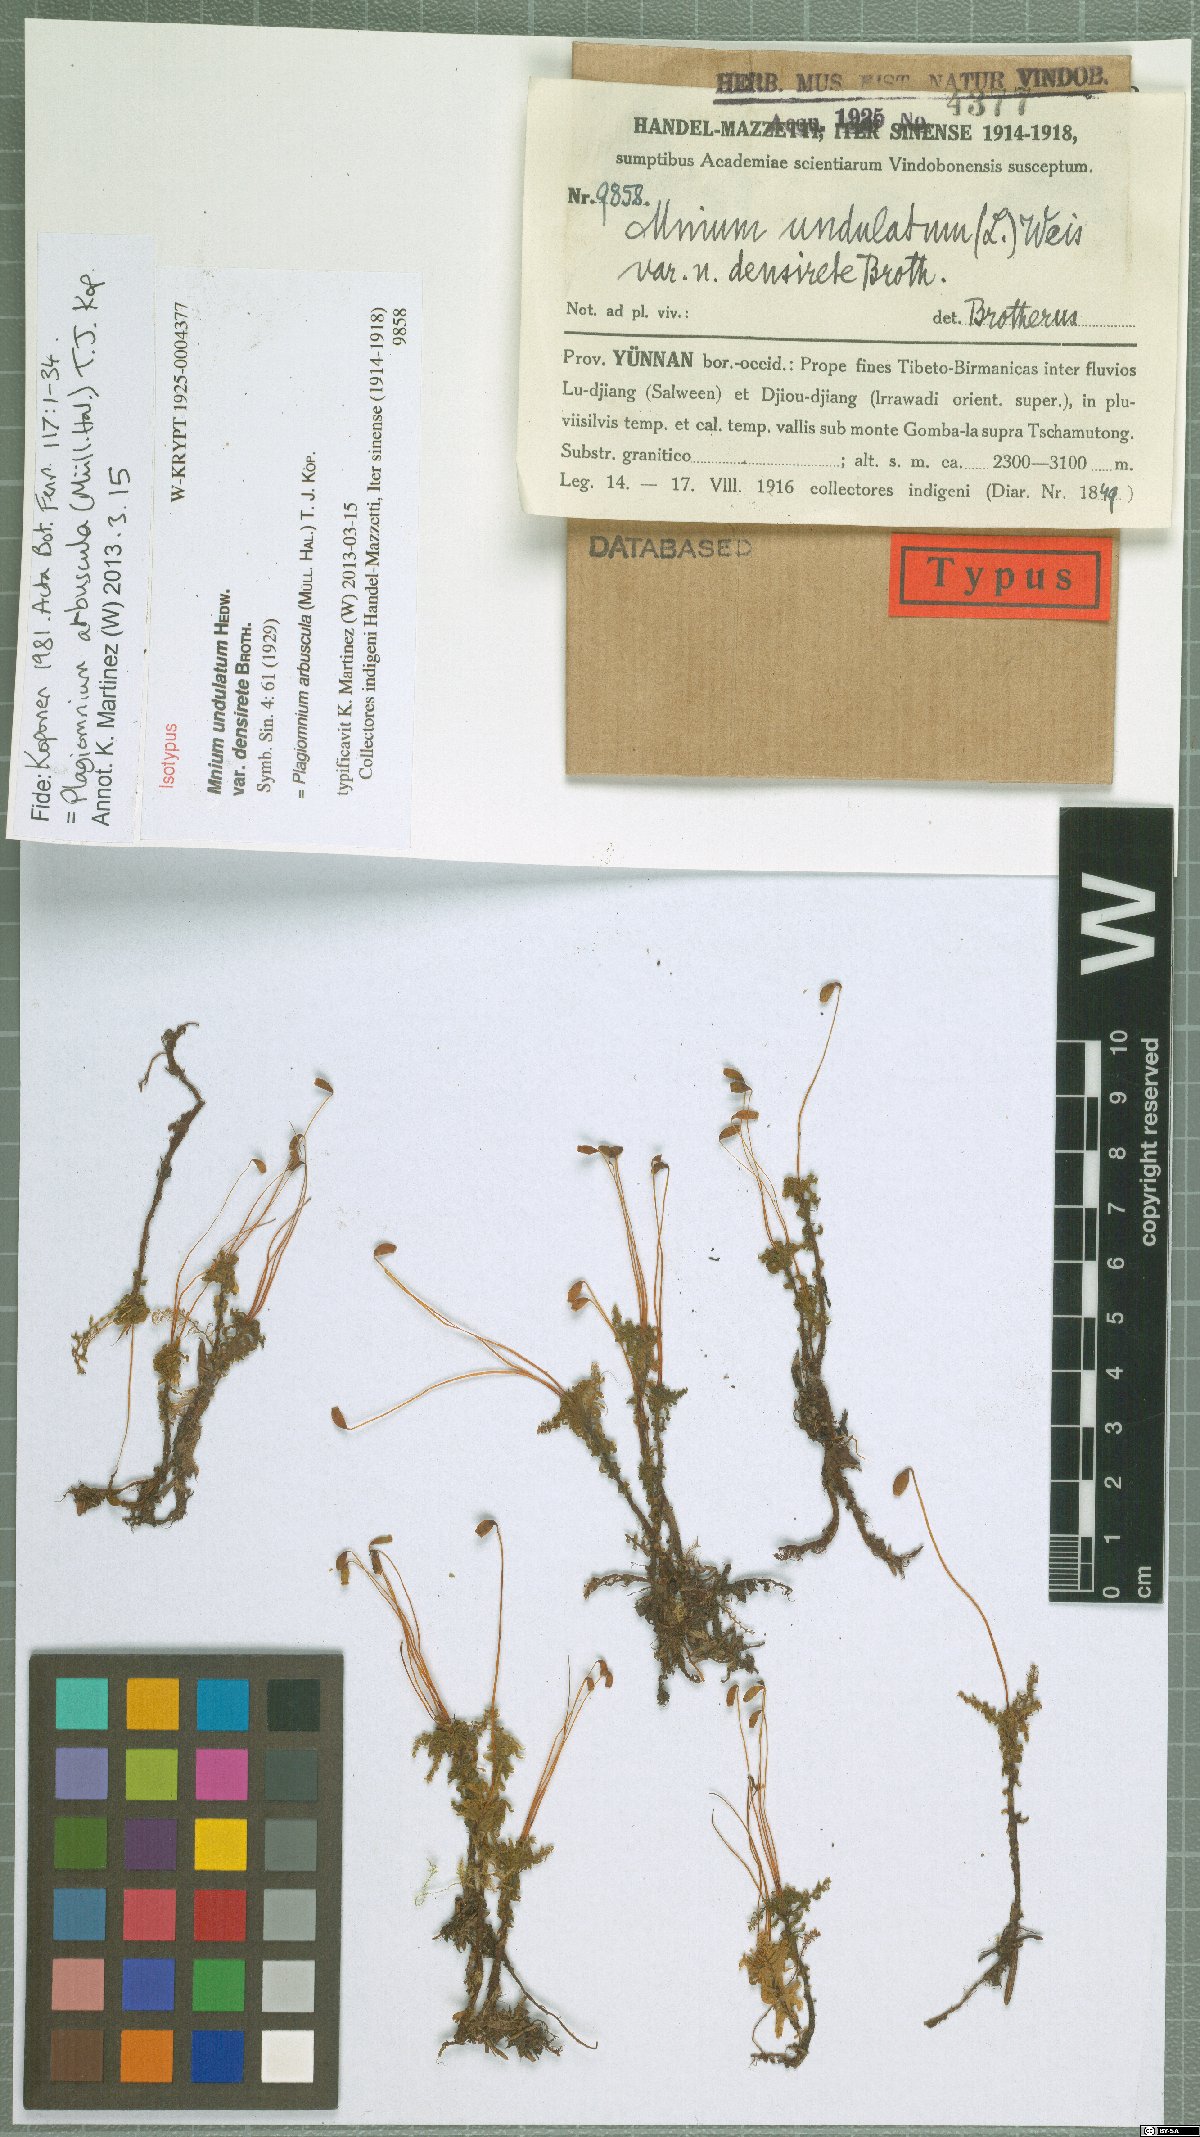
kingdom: Plantae
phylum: Bryophyta
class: Bryopsida
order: Bryales
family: Mniaceae
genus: Plagiomnium
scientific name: Plagiomnium arbuscula
